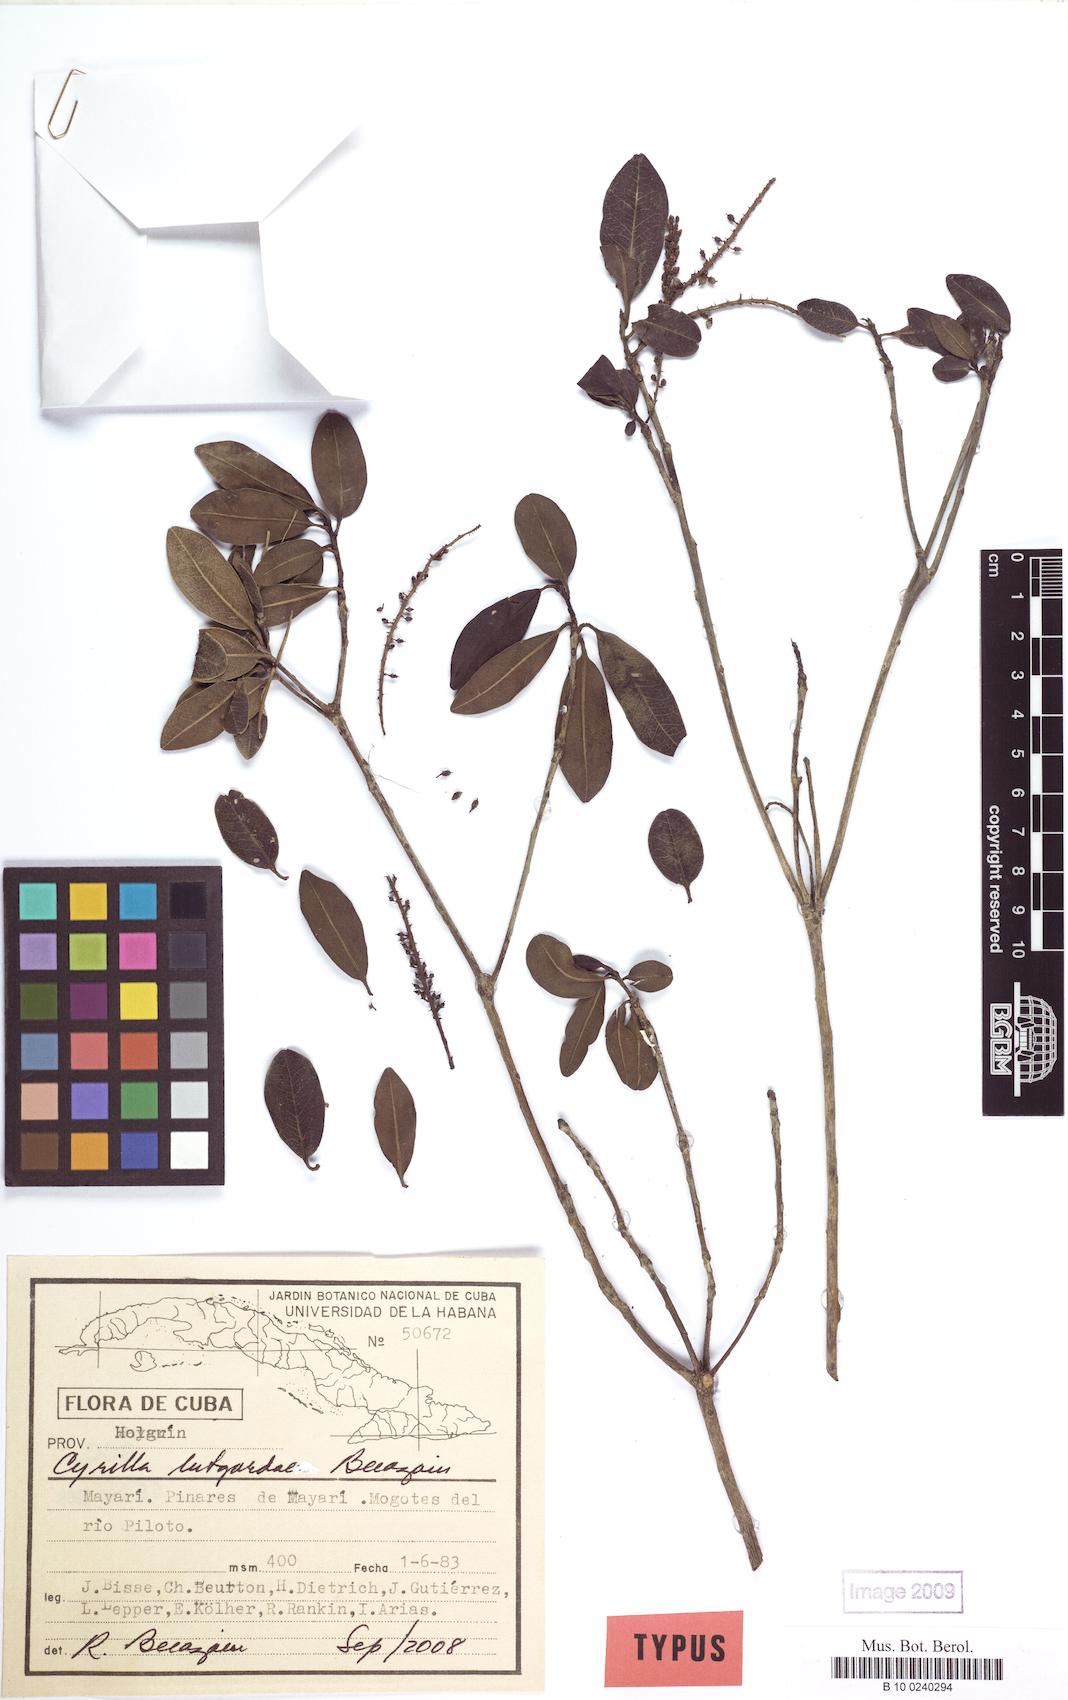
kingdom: Plantae
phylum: Tracheophyta
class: Magnoliopsida
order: Ericales
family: Cyrillaceae
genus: Cyrilla
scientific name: Cyrilla lutgardae
